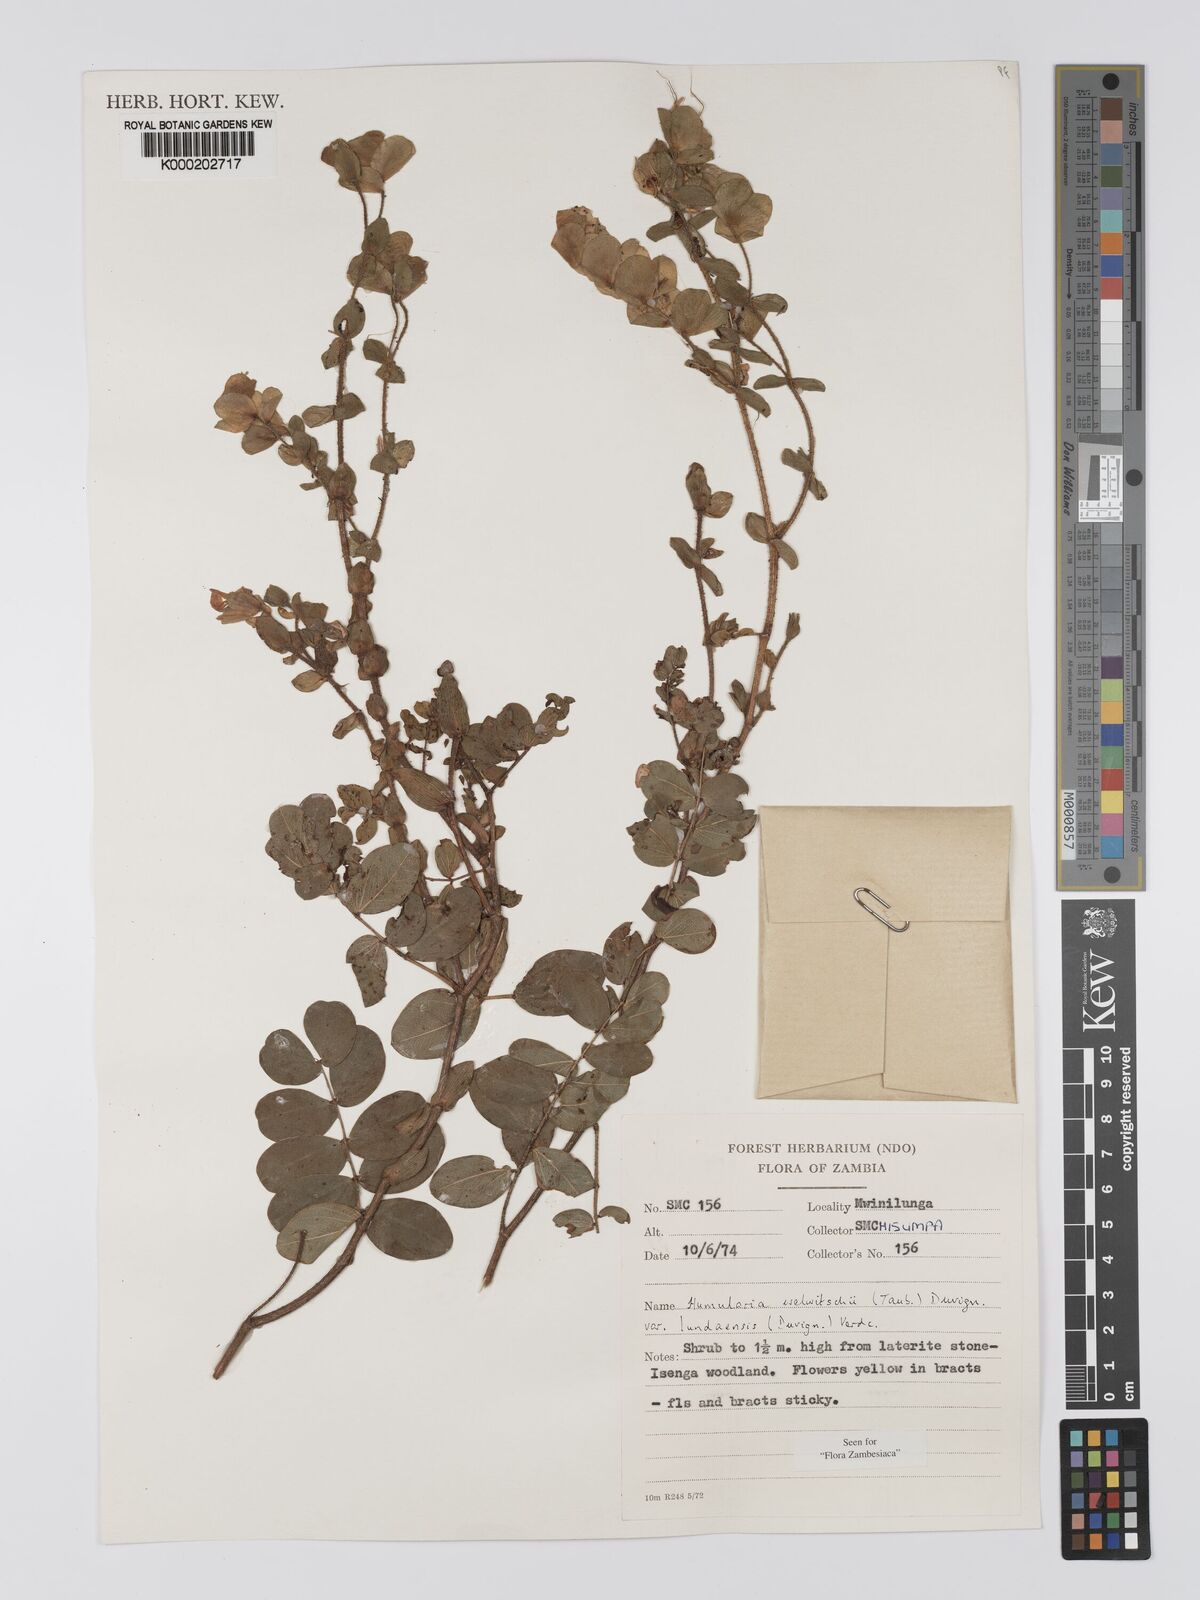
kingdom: Plantae
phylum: Tracheophyta
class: Magnoliopsida
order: Fabales
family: Fabaceae
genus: Humularia
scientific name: Humularia welwitschii
